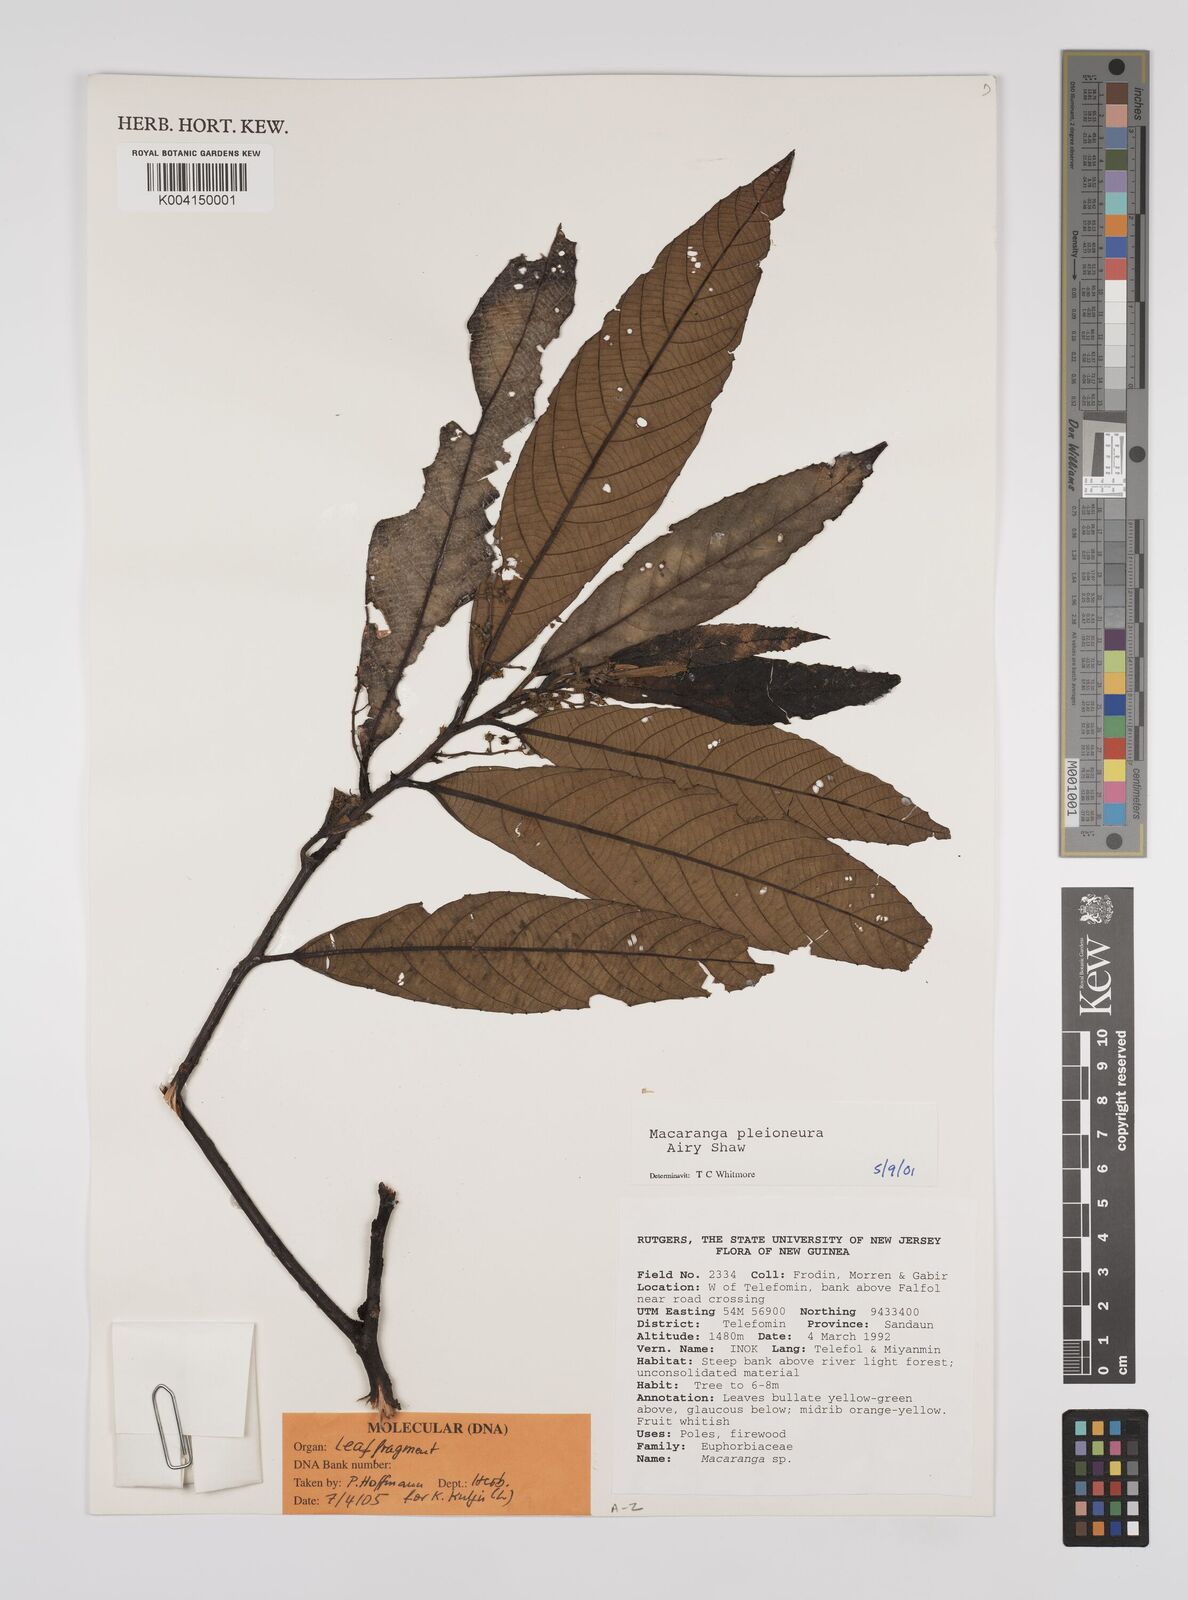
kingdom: Plantae
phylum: Tracheophyta
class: Magnoliopsida
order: Malpighiales
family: Euphorbiaceae
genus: Macaranga
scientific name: Macaranga pleioneura
